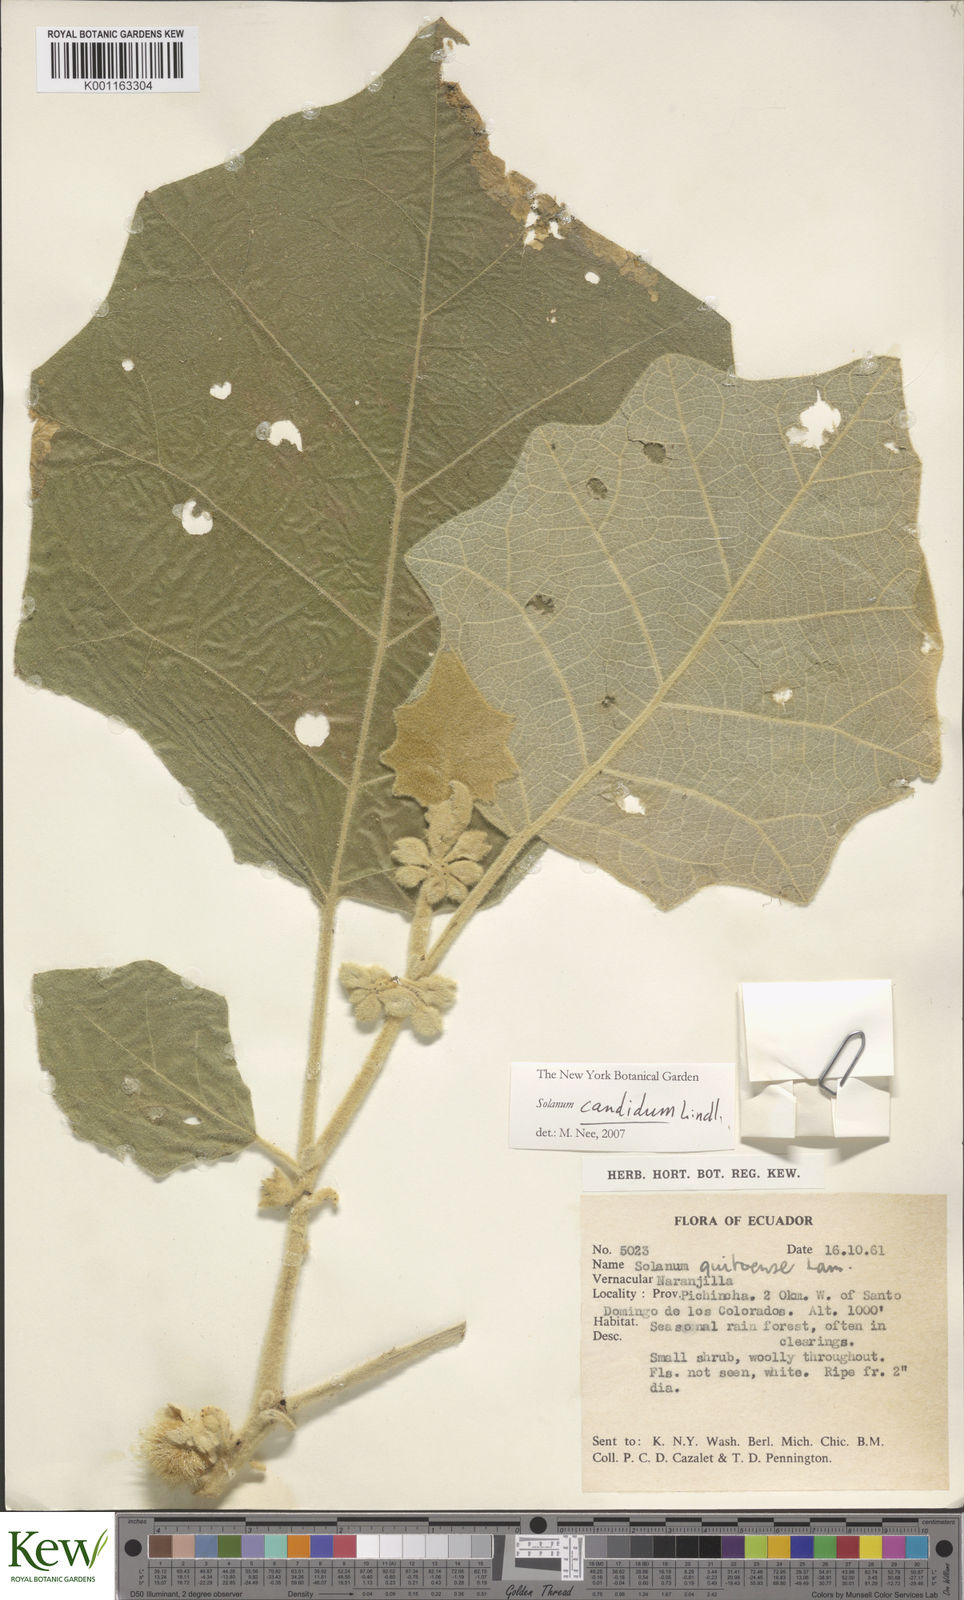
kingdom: Plantae
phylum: Tracheophyta
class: Magnoliopsida
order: Solanales
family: Solanaceae
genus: Solanum
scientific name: Solanum candidum
